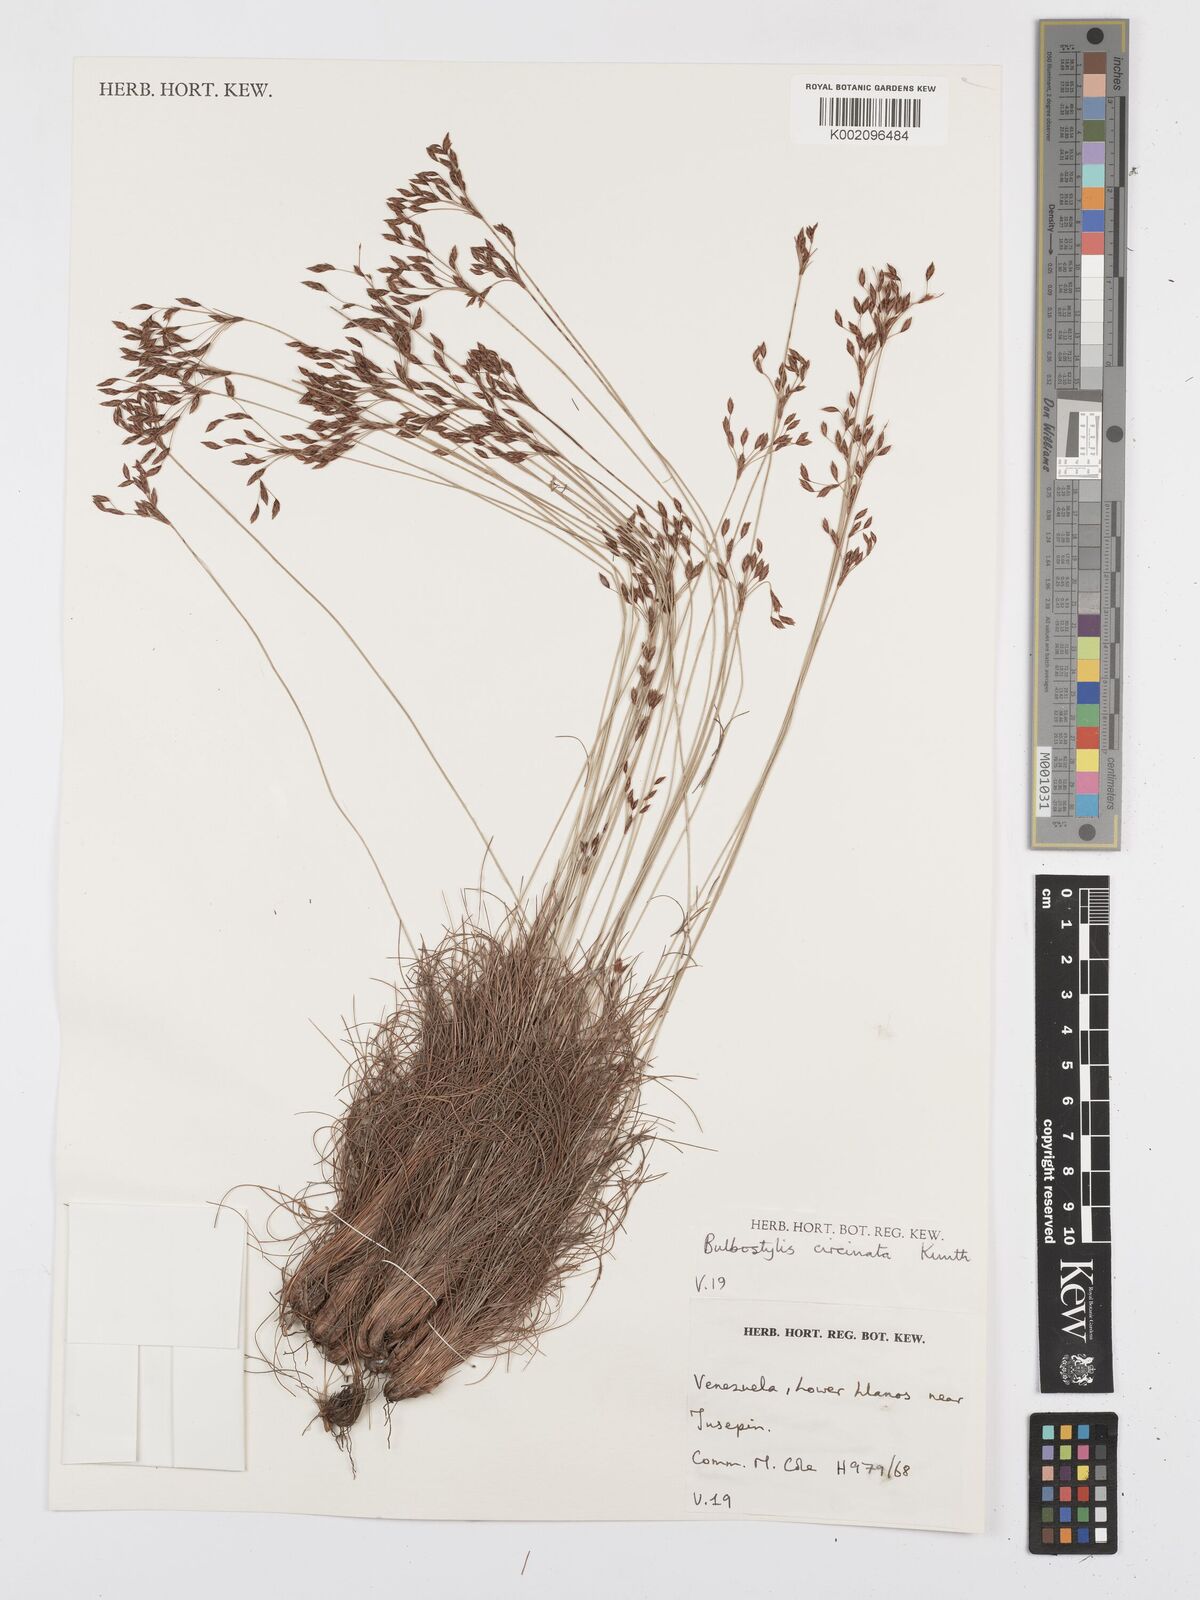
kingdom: Plantae
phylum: Tracheophyta
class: Liliopsida
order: Poales
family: Cyperaceae
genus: Bulbostylis
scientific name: Bulbostylis circinata
